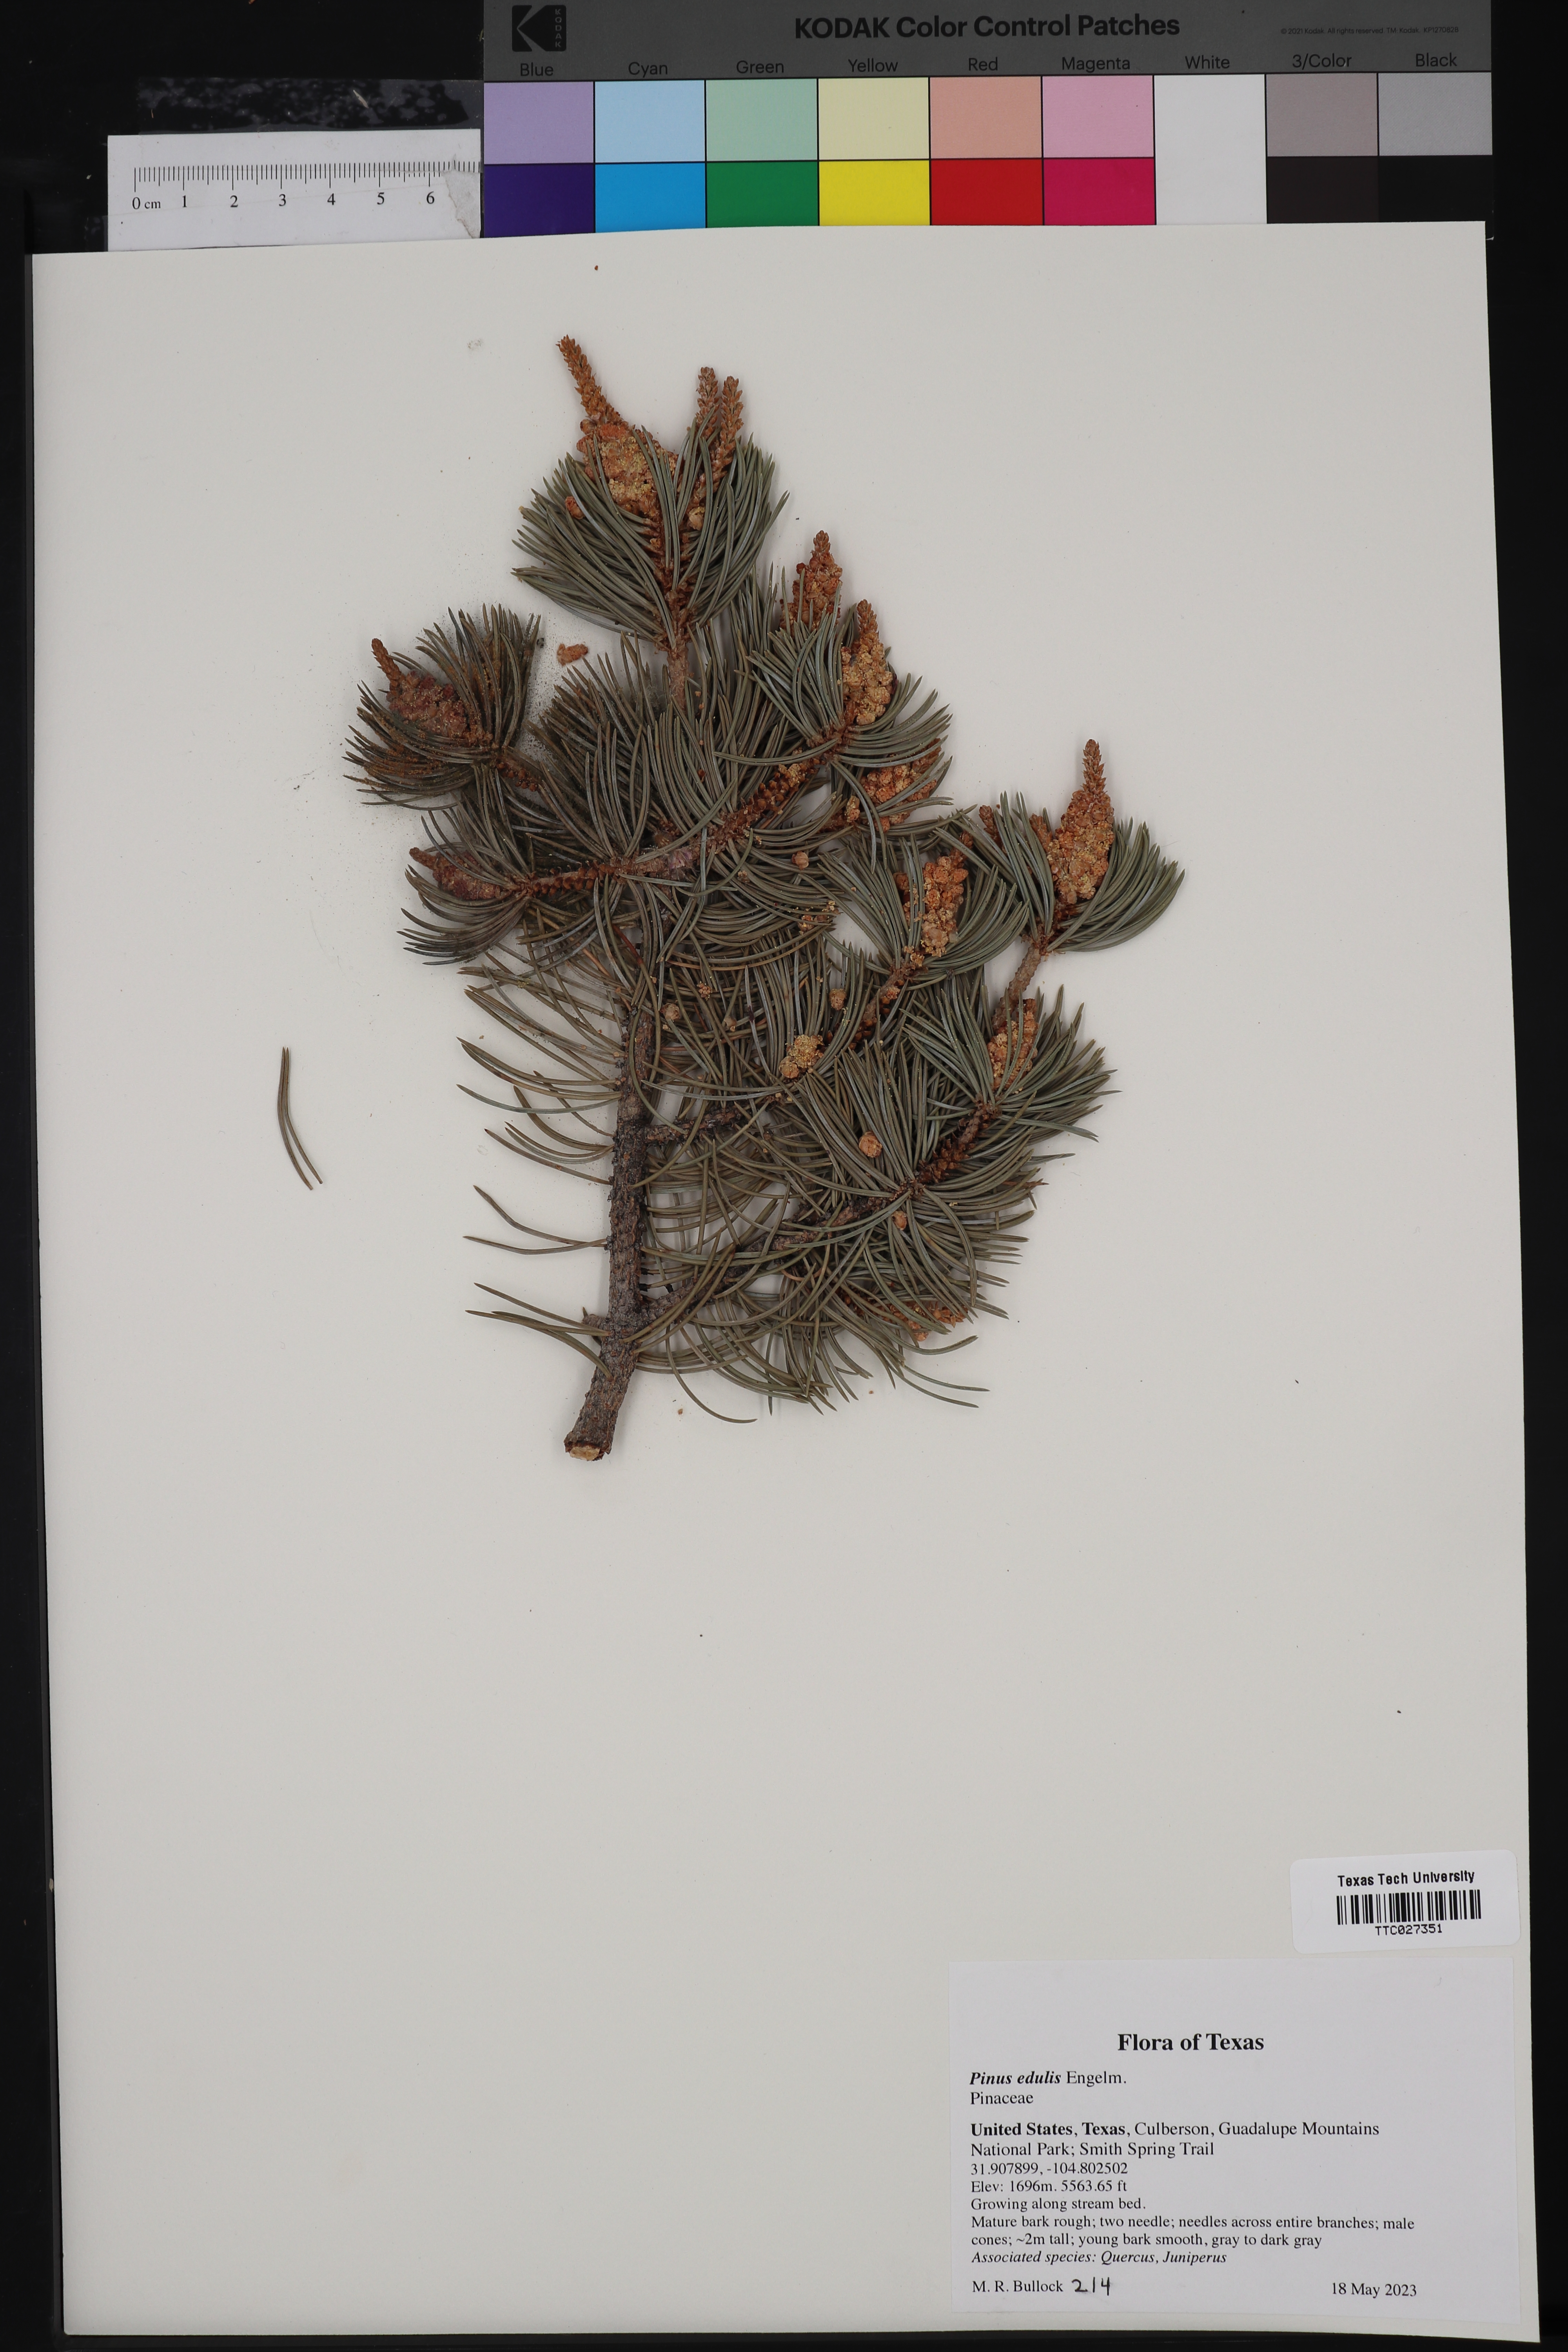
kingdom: Plantae
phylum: Tracheophyta
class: Pinopsida
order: Pinales
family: Pinaceae
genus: Pinus
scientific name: Pinus edulis
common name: Colorado pinyon
